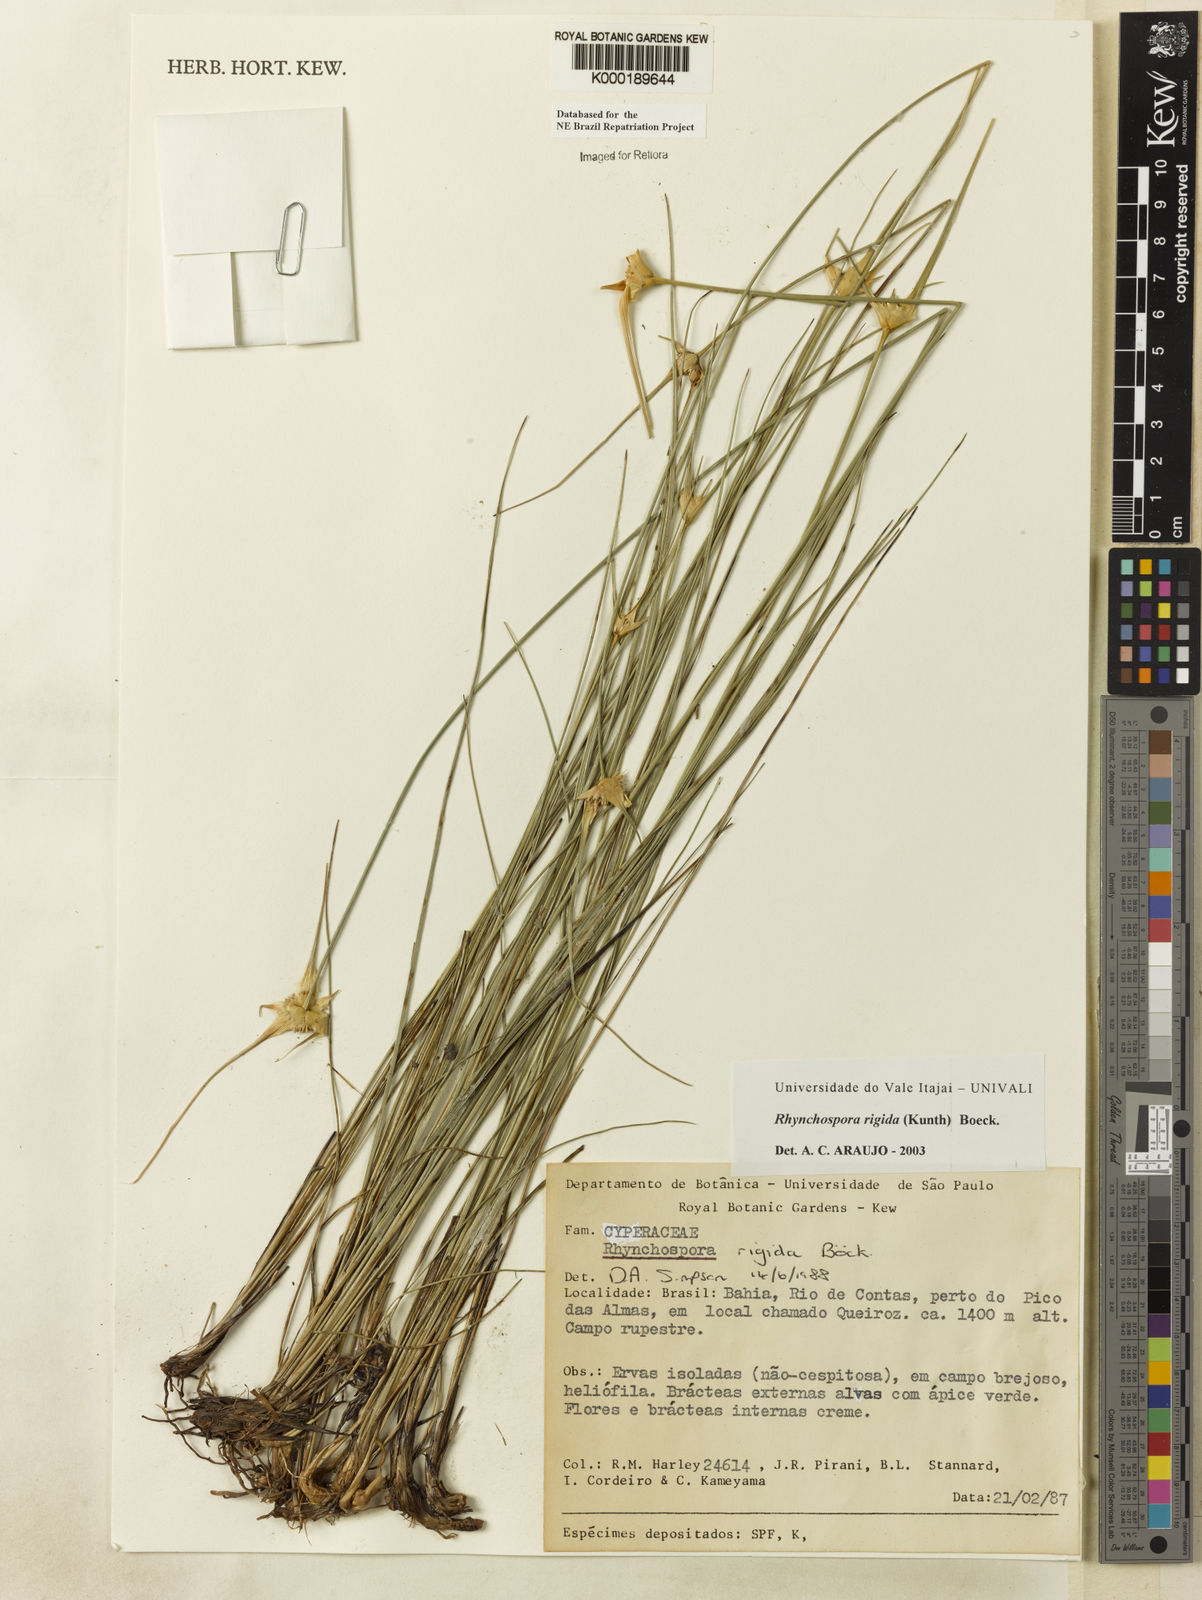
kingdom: Plantae
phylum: Tracheophyta
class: Liliopsida
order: Poales
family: Cyperaceae
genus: Rhynchospora
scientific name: Rhynchospora consanguinea
